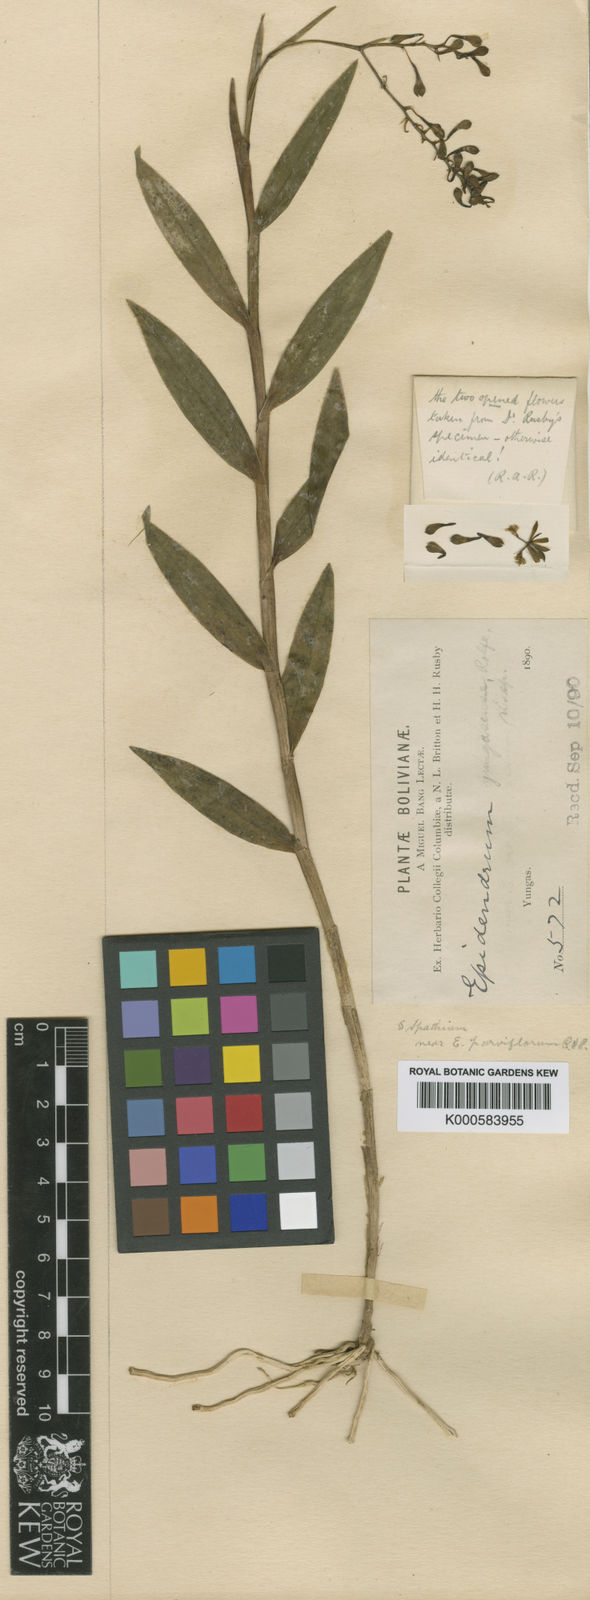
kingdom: Plantae
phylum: Tracheophyta
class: Liliopsida
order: Asparagales
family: Orchidaceae
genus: Epidendrum
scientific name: Epidendrum yungasense
